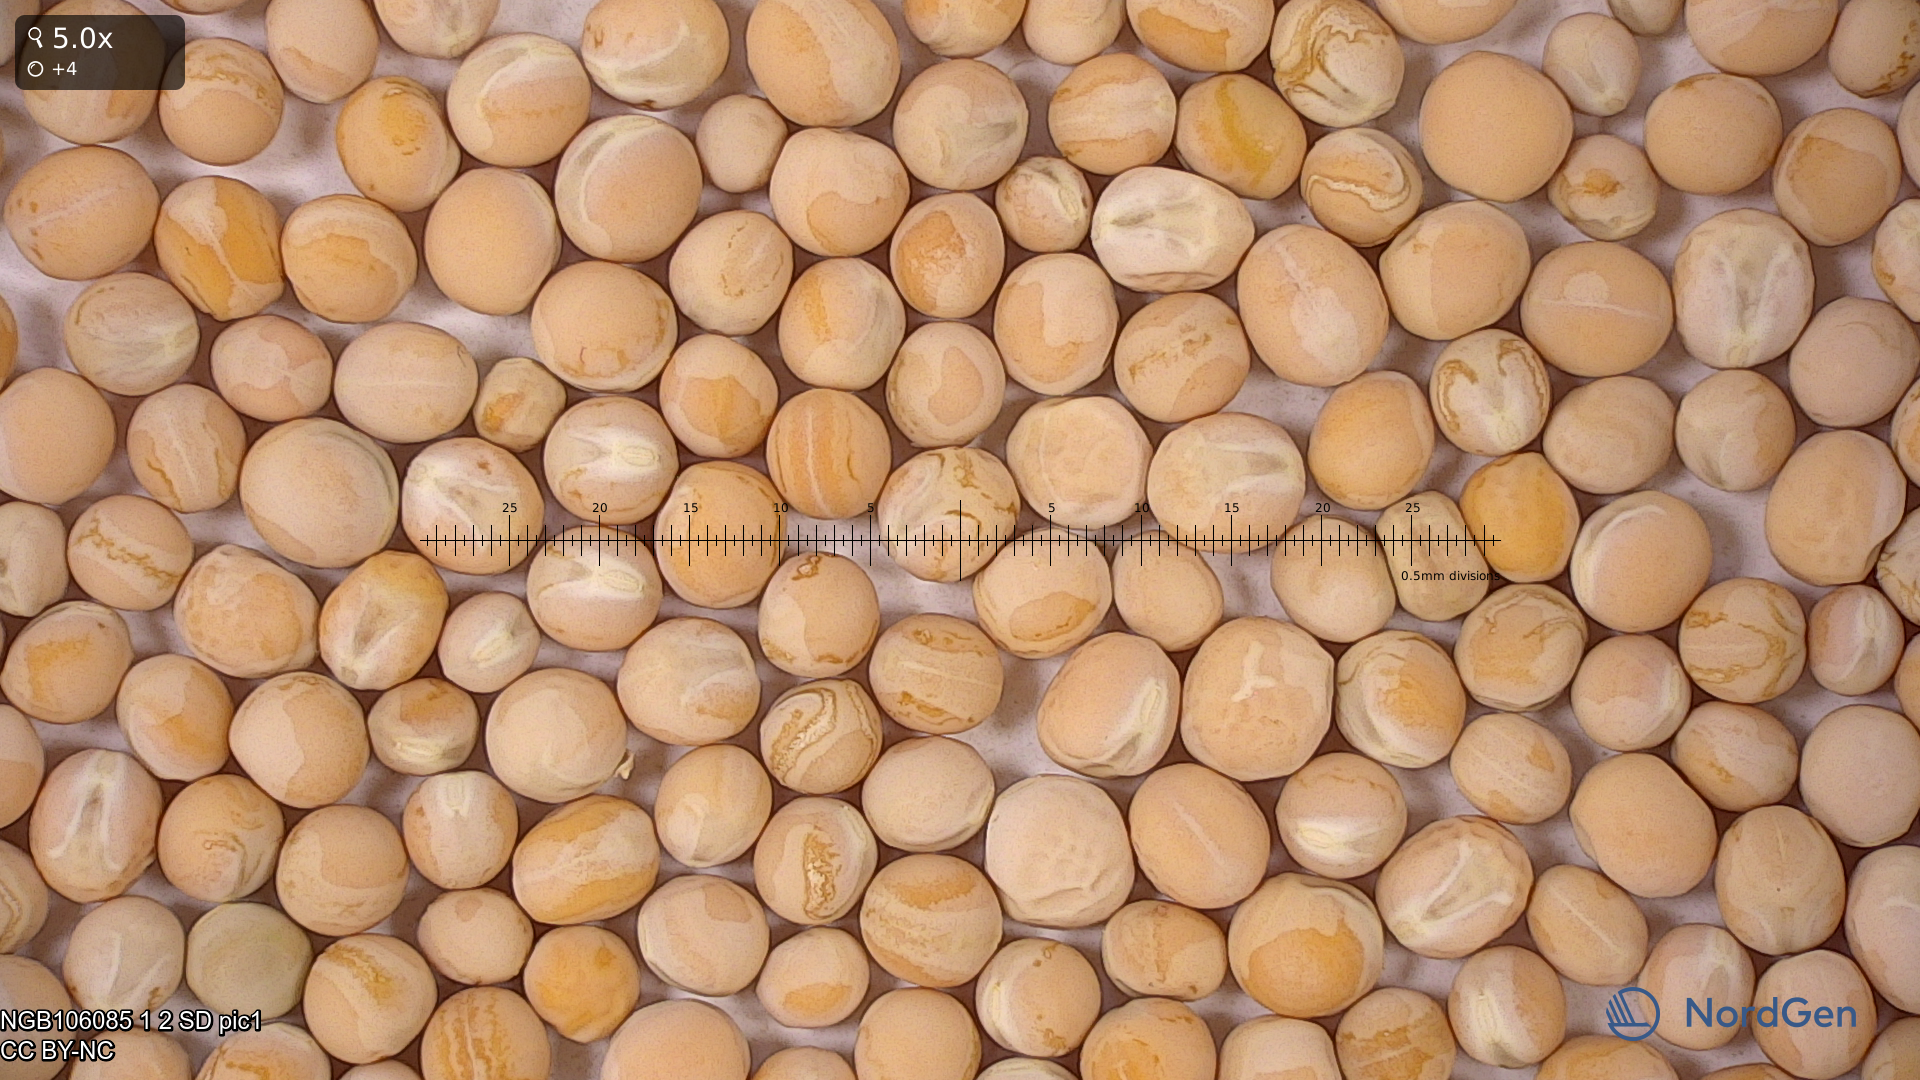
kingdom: Plantae
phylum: Tracheophyta
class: Magnoliopsida
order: Fabales
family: Fabaceae
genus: Lathyrus
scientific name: Lathyrus oleraceus
